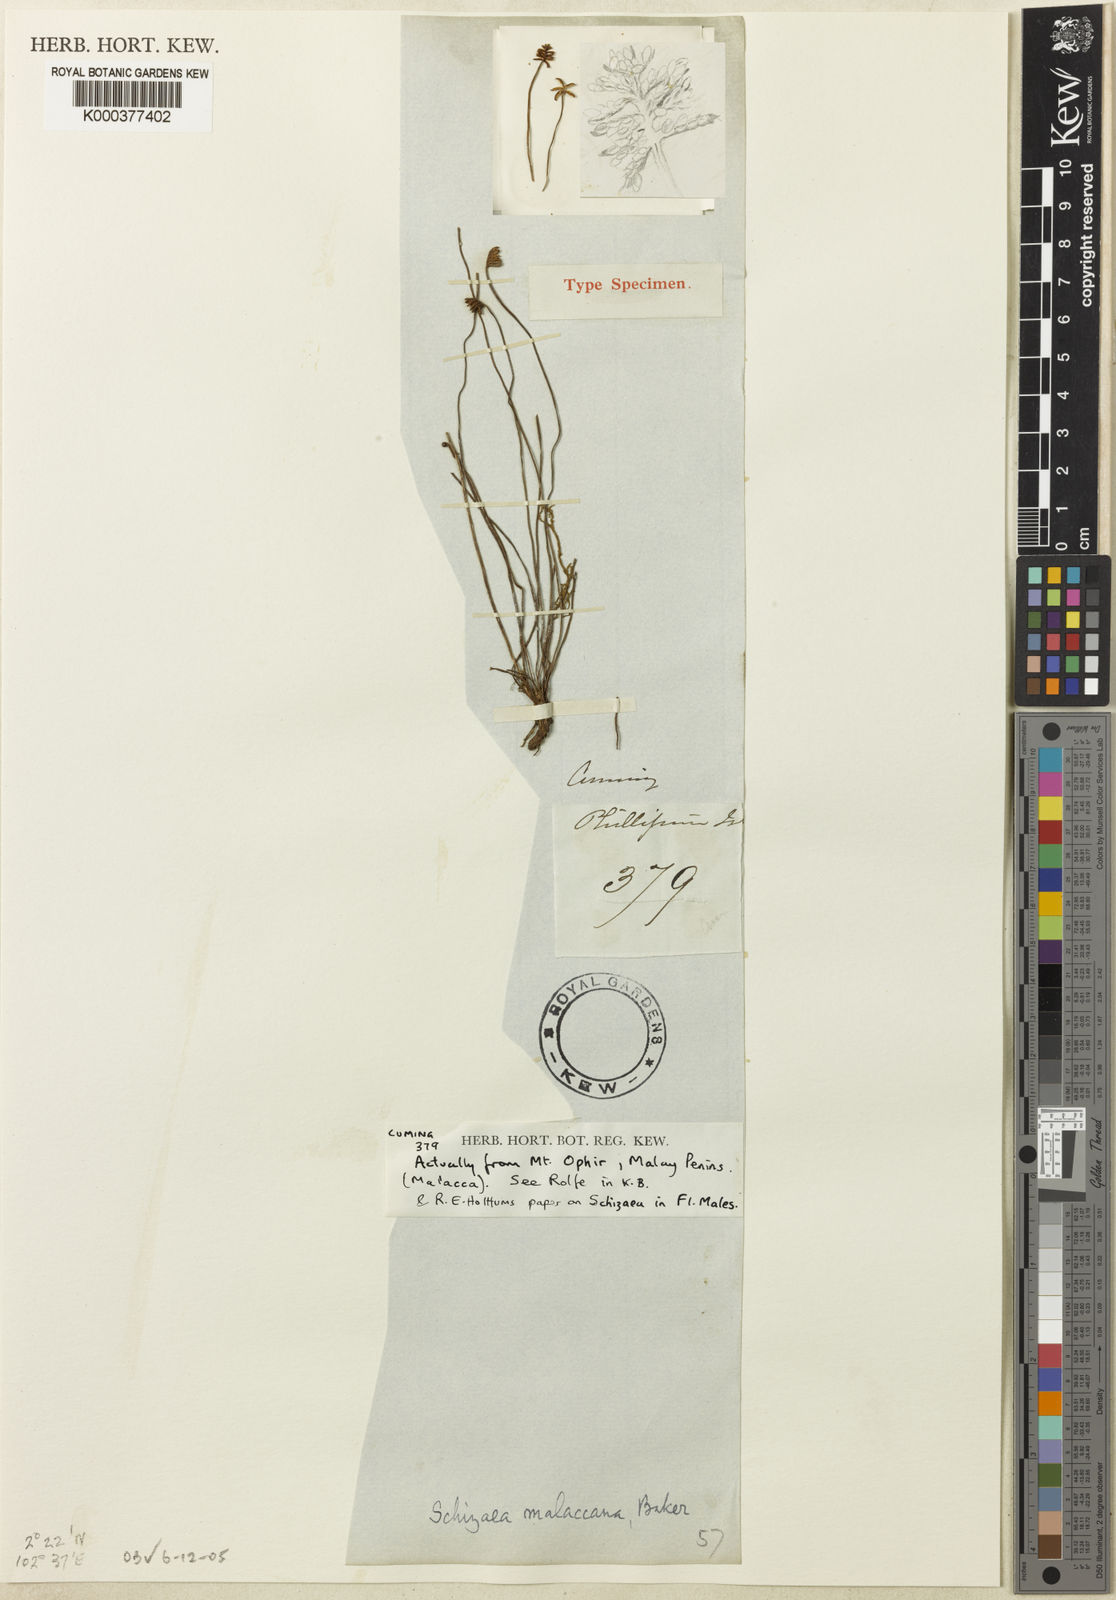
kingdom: Plantae
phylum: Tracheophyta
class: Polypodiopsida
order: Schizaeales
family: Schizaeaceae
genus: Microschizaea
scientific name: Microschizaea malaccana
